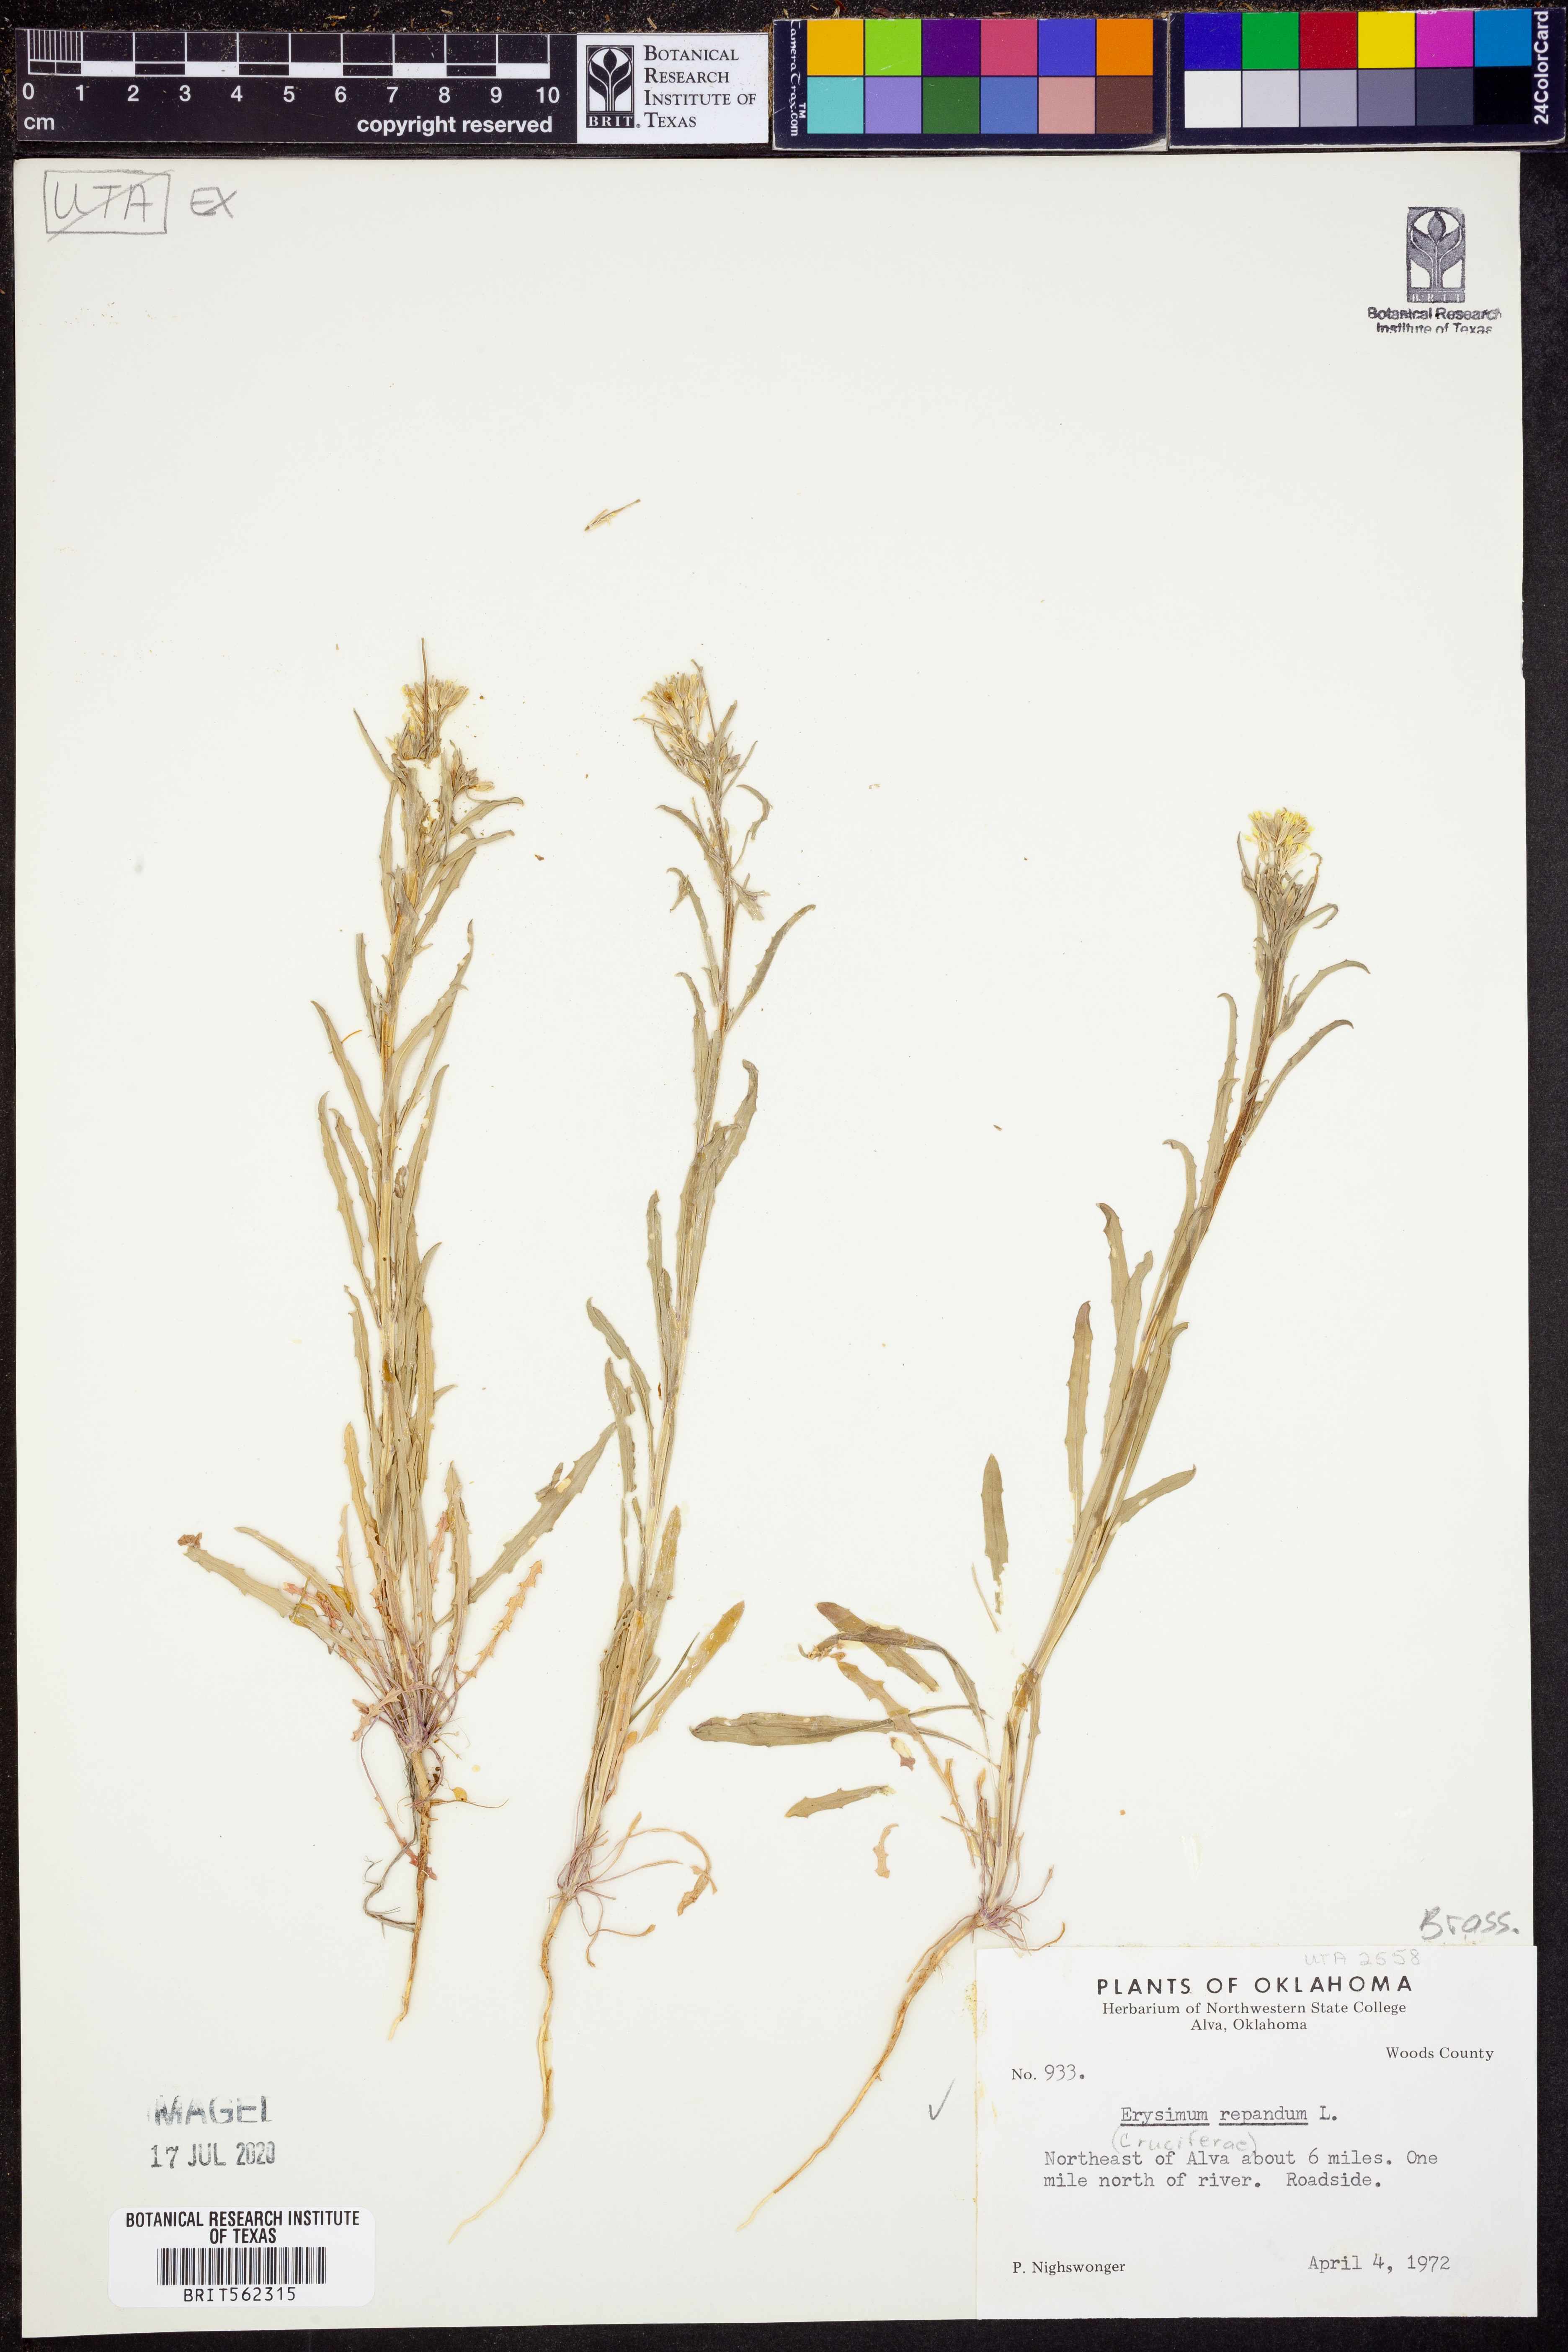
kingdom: Plantae
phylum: Tracheophyta
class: Magnoliopsida
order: Brassicales
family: Brassicaceae
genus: Erysimum
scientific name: Erysimum repandum
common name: Spreading wallflower
